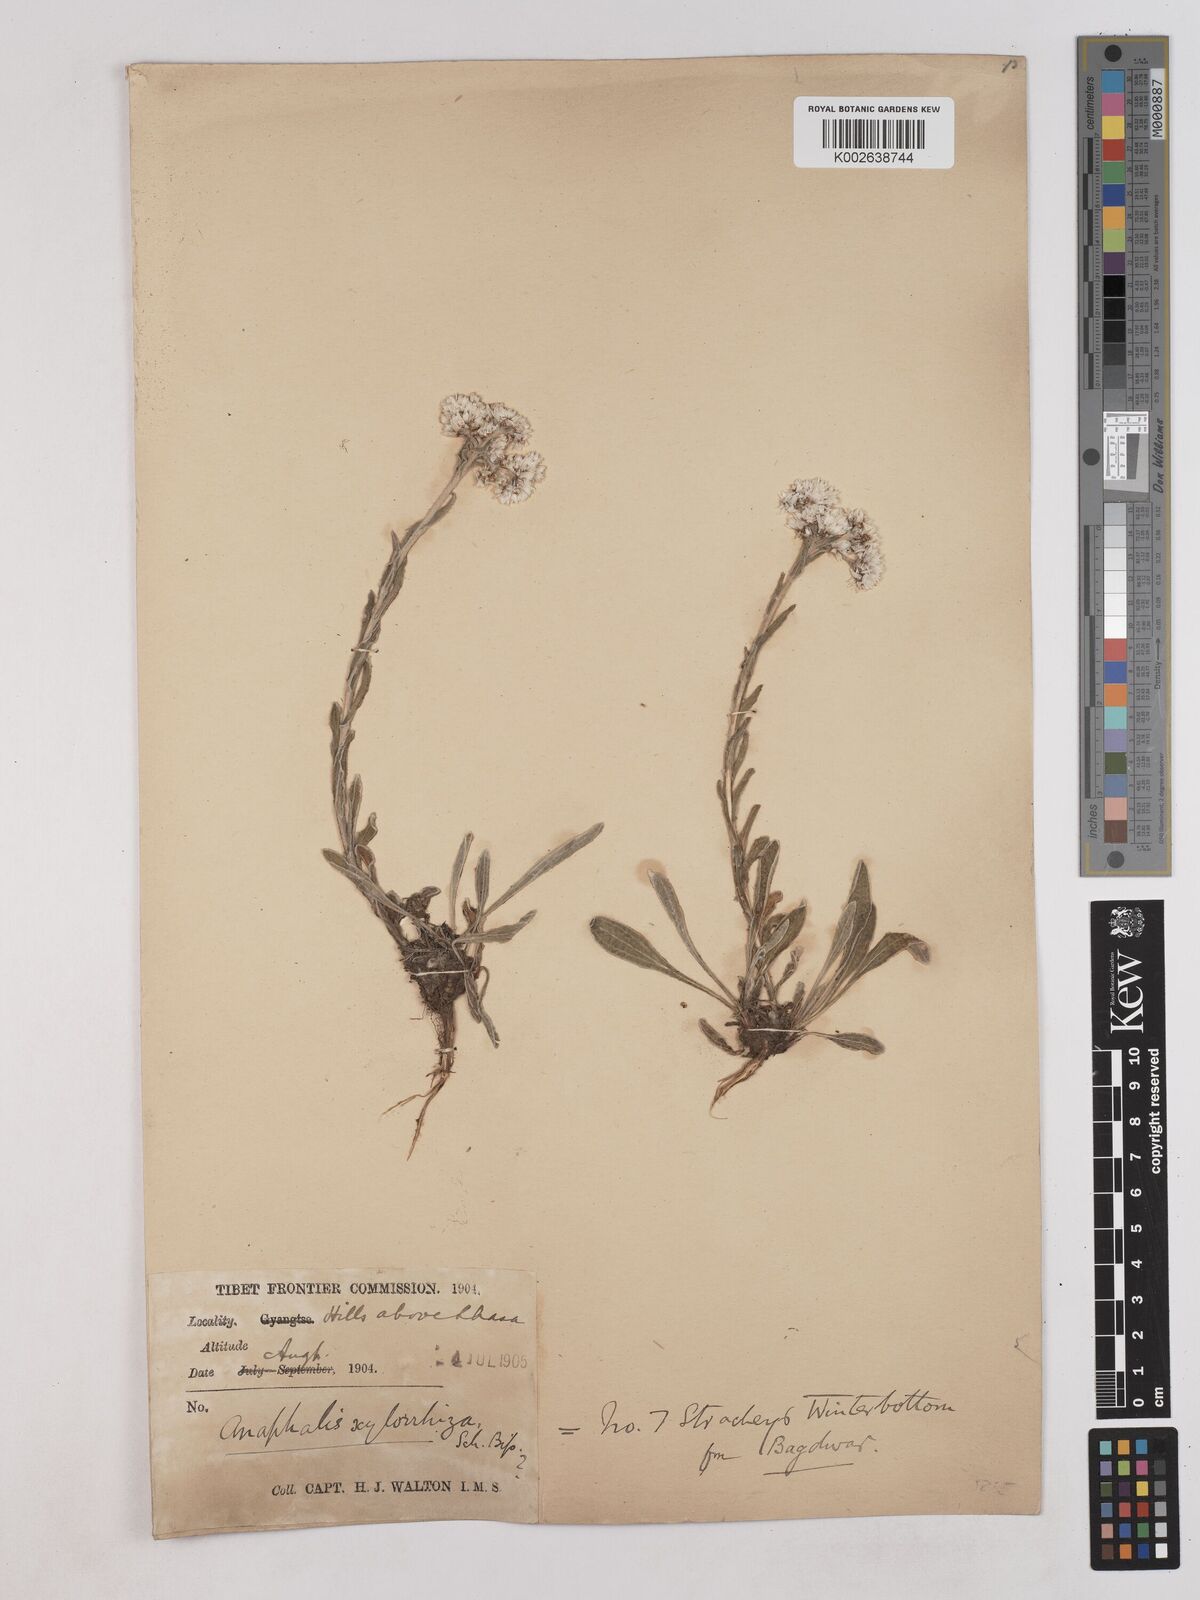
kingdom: Plantae
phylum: Tracheophyta
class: Magnoliopsida
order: Asterales
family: Asteraceae
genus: Anaphalis
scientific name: Anaphalis xylorhiza
